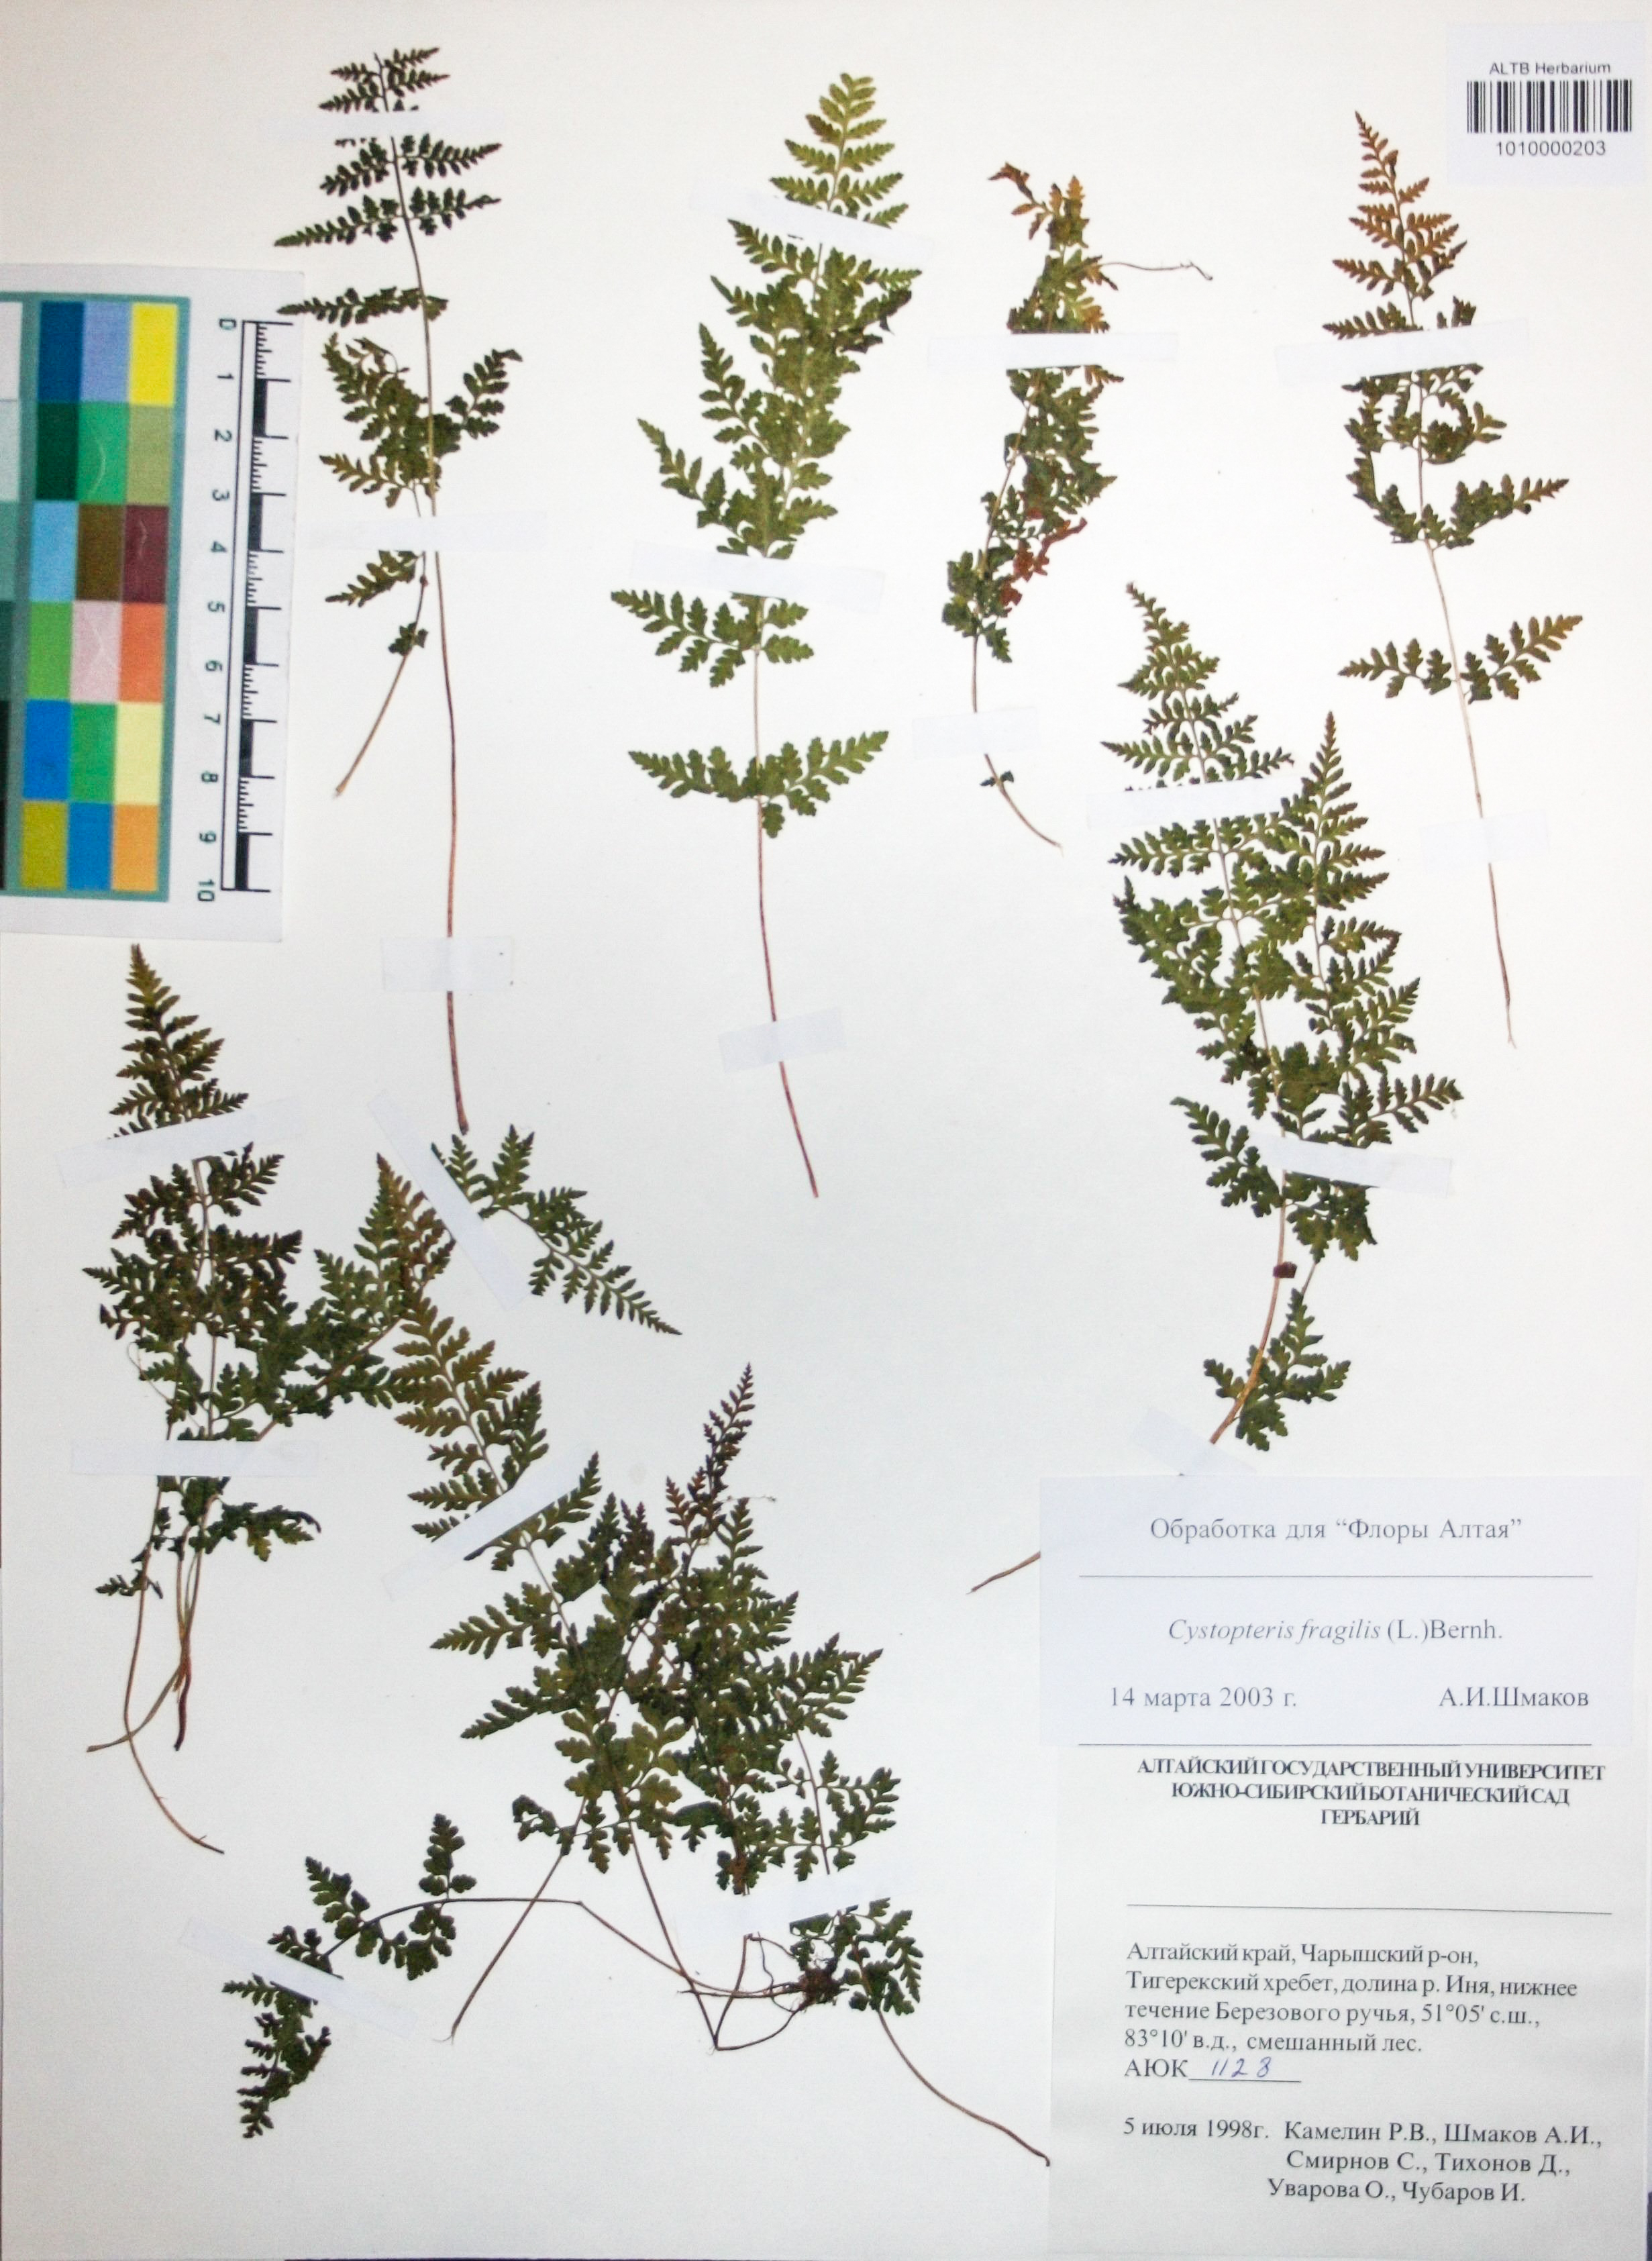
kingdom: Plantae
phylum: Tracheophyta
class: Polypodiopsida
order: Polypodiales
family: Cystopteridaceae
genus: Cystopteris
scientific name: Cystopteris fragilis
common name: Brittle bladder fern
